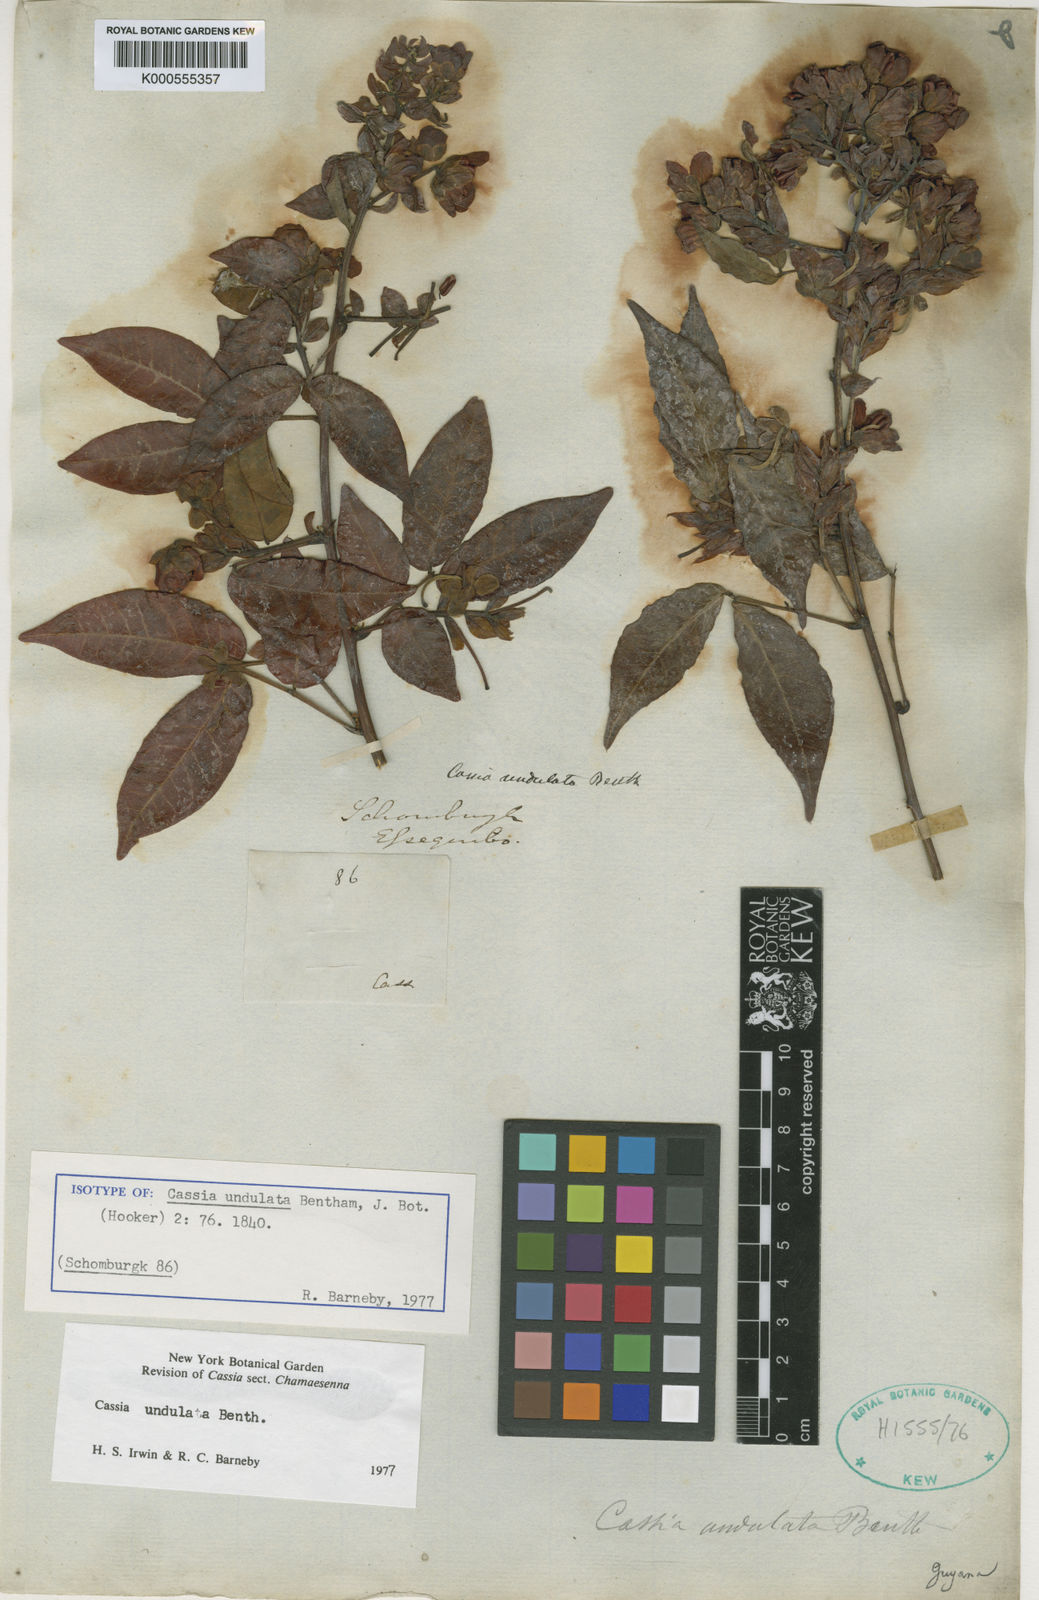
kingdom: Plantae
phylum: Tracheophyta
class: Magnoliopsida
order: Fabales
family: Fabaceae
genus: Senna
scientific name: Senna undulata
